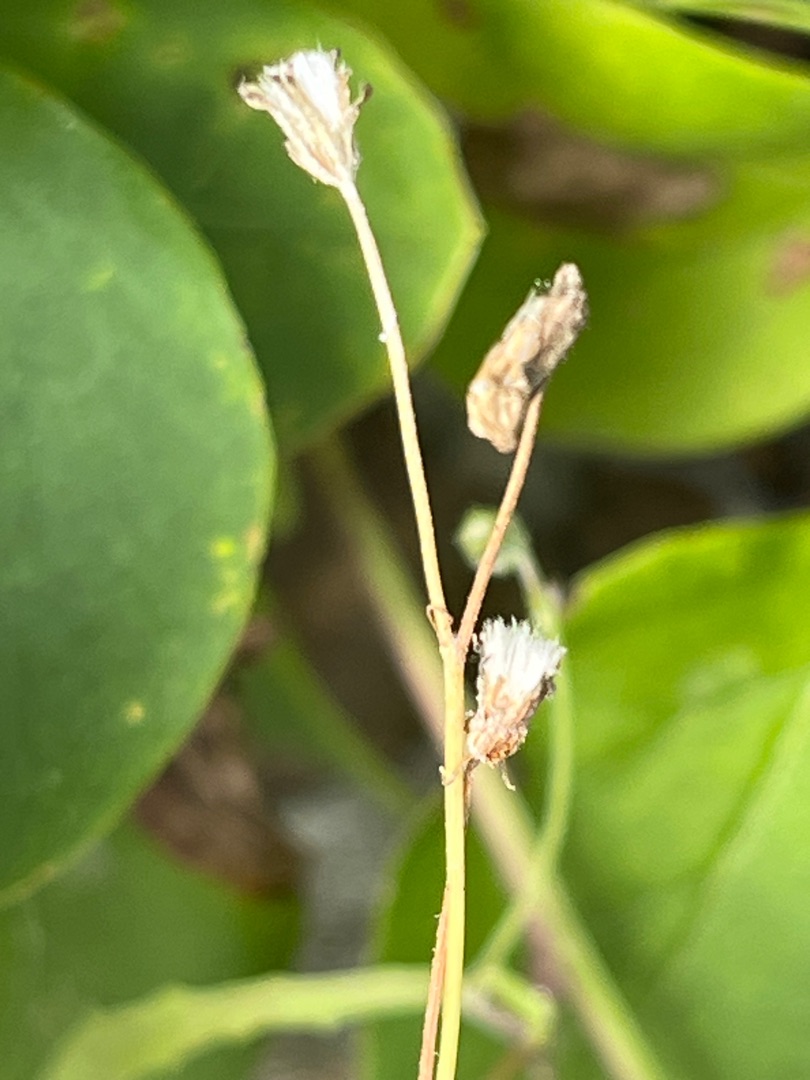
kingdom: Plantae
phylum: Tracheophyta
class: Magnoliopsida
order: Asterales
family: Asteraceae
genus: Crepis
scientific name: Crepis capillaris
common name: Grøn høgeskæg
